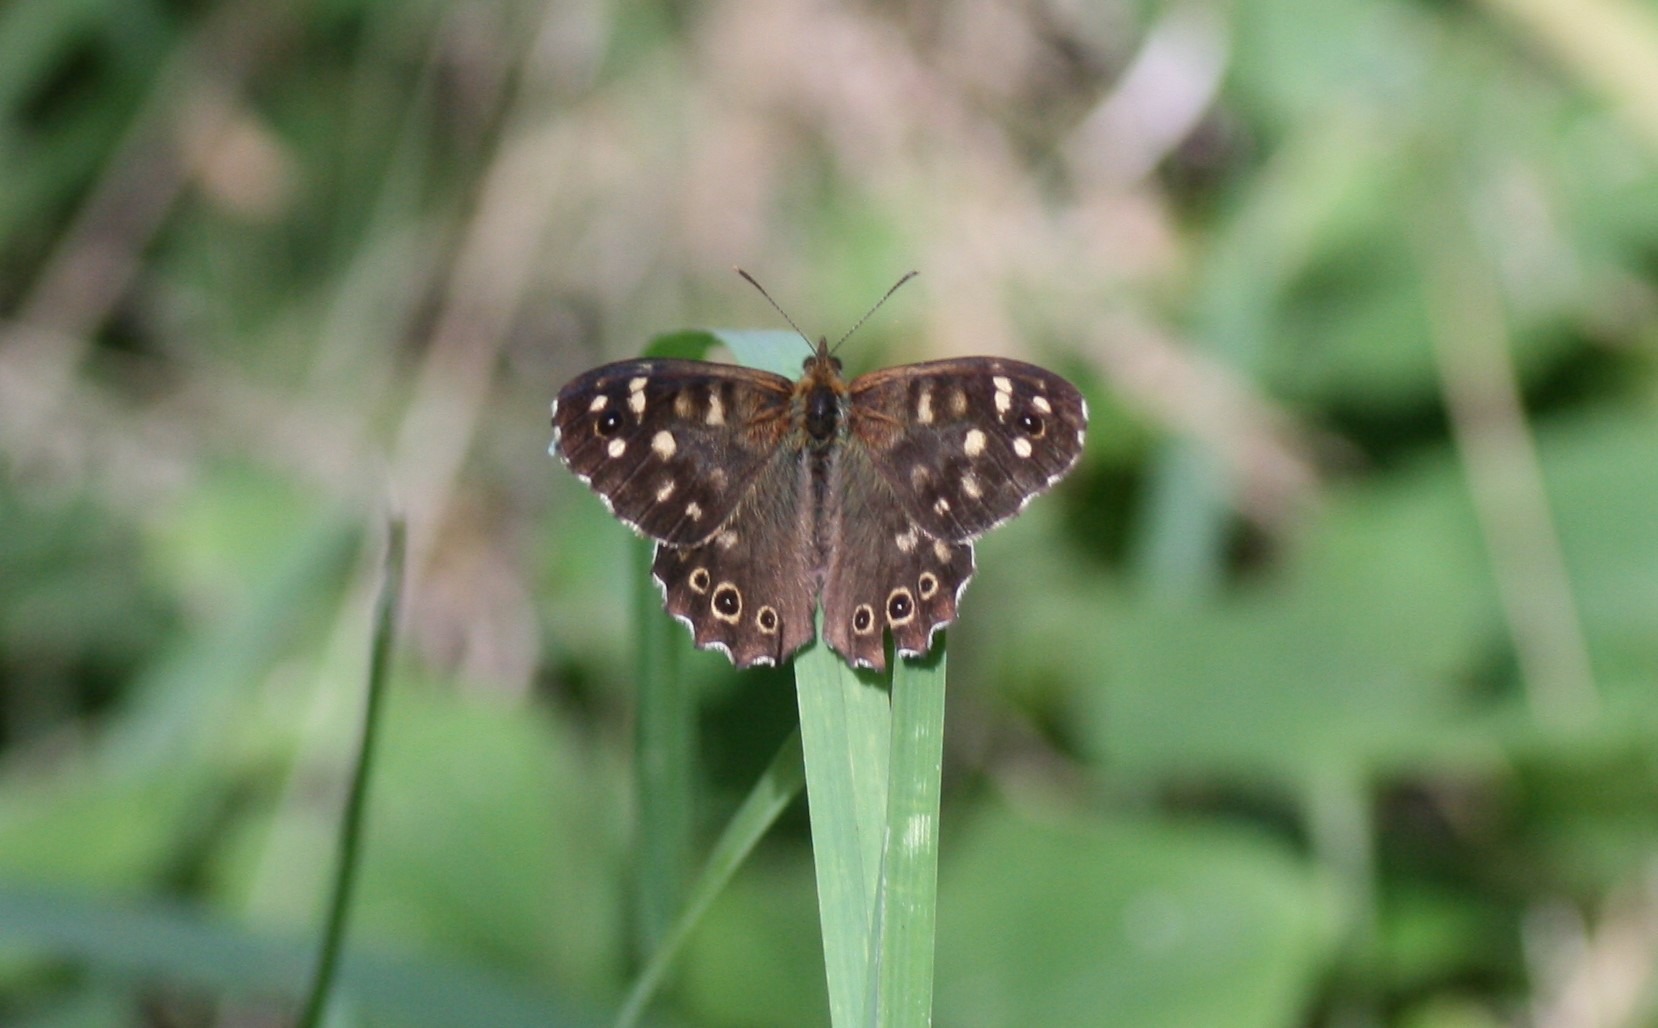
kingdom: Animalia
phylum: Arthropoda
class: Insecta
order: Lepidoptera
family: Nymphalidae
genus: Pararge
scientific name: Pararge aegeria
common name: Skovrandøje
